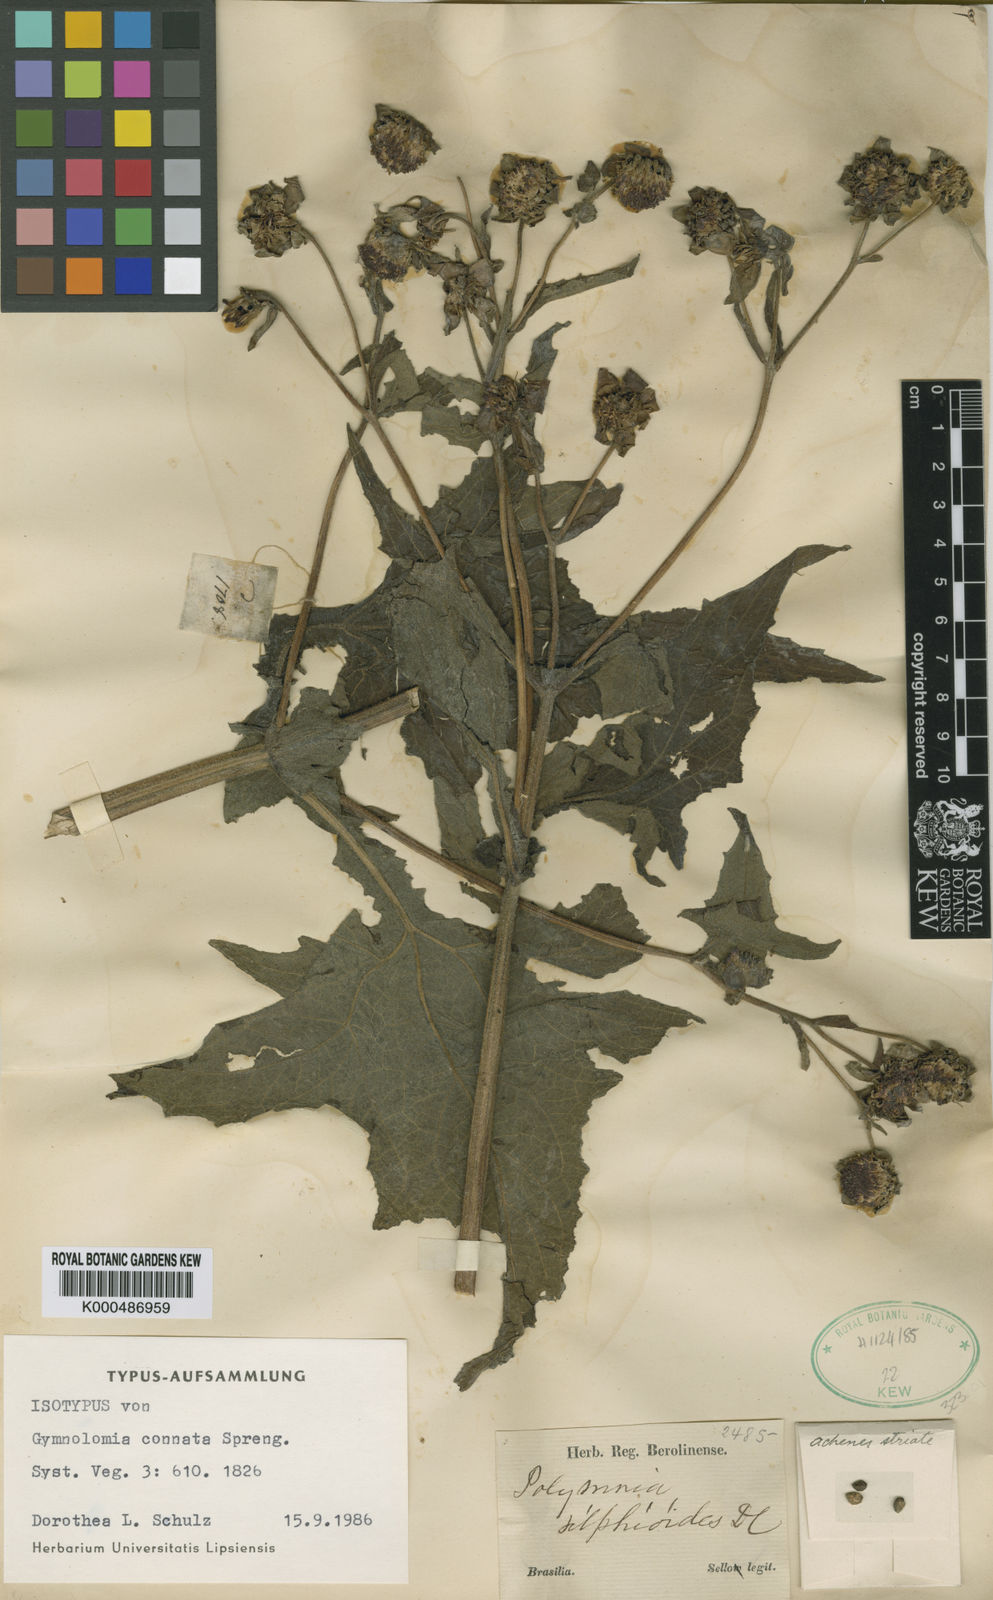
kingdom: Plantae
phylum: Tracheophyta
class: Magnoliopsida
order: Asterales
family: Asteraceae
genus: Smallanthus
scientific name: Smallanthus connatus
